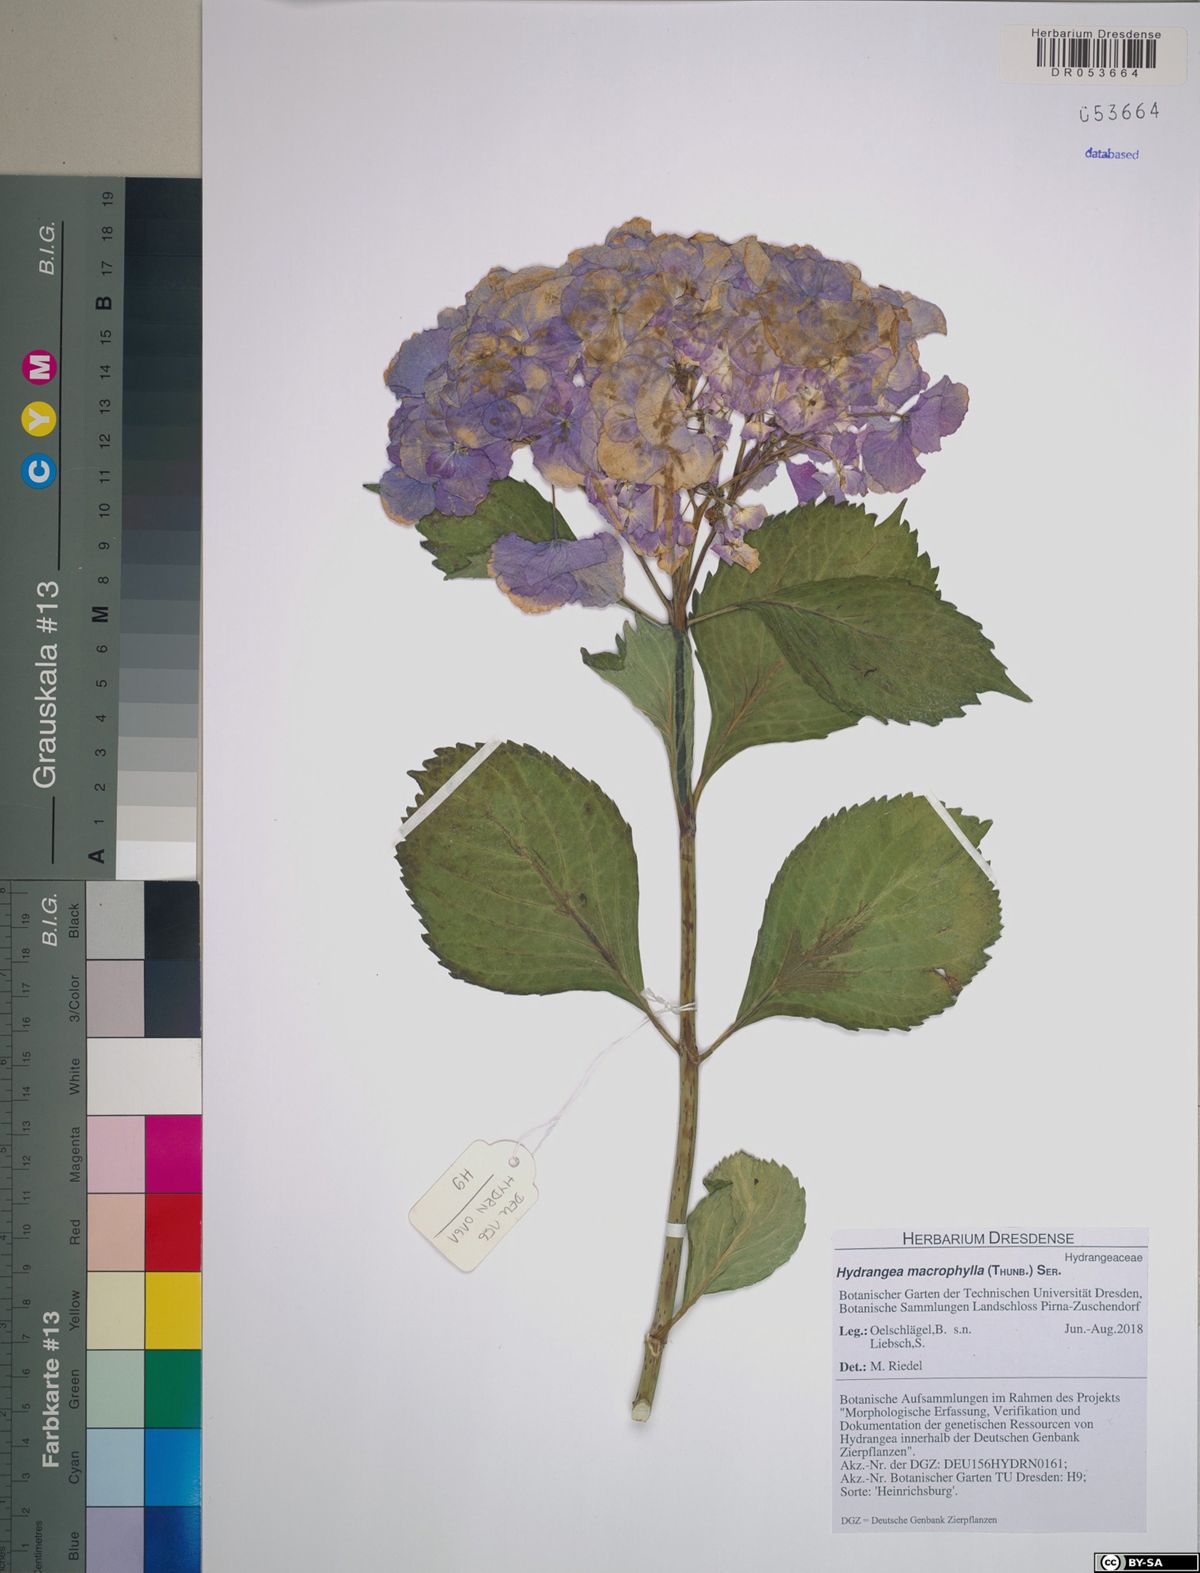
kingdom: Plantae
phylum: Tracheophyta
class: Magnoliopsida
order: Cornales
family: Hydrangeaceae
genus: Hydrangea
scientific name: Hydrangea macrophylla
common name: Hydrangea
